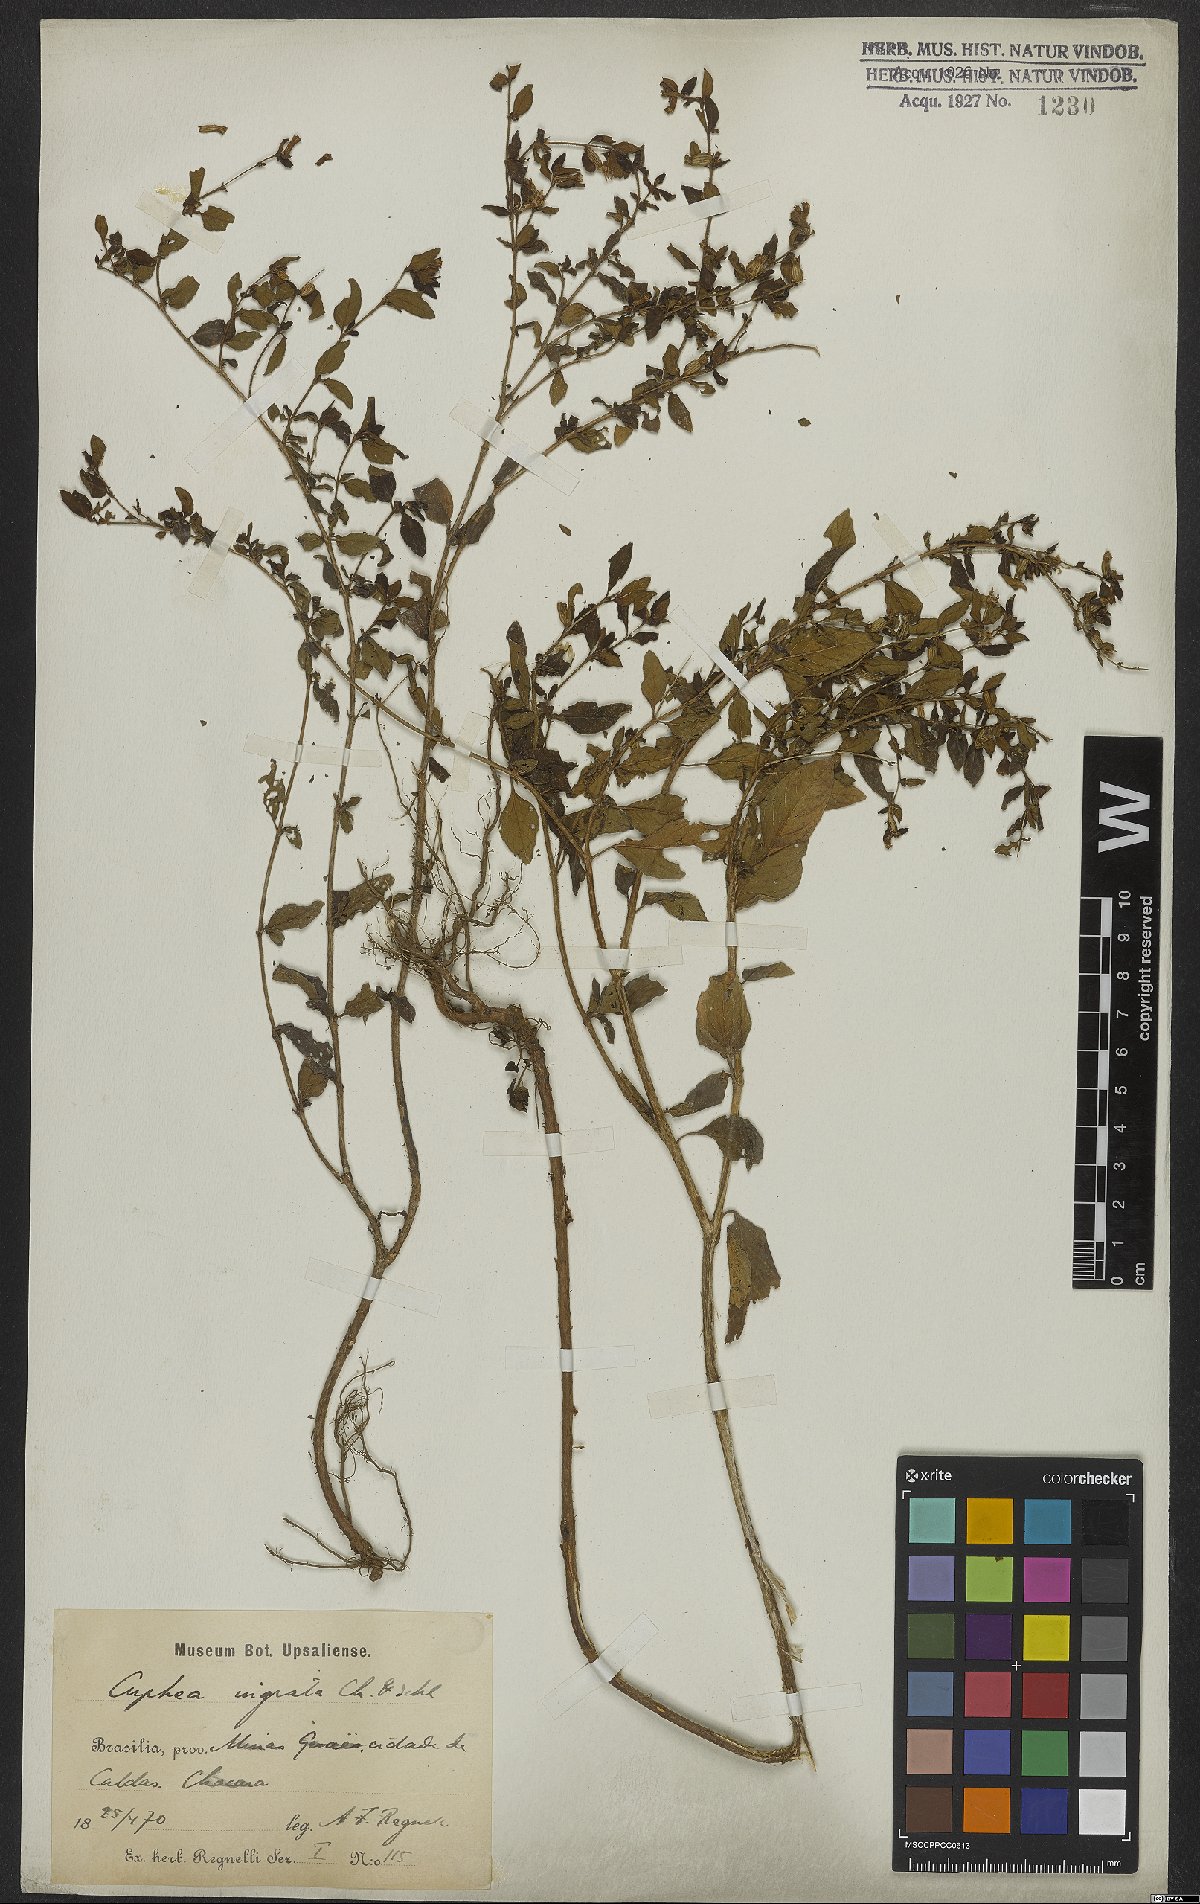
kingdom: Plantae
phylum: Tracheophyta
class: Magnoliopsida
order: Myrtales
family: Lythraceae
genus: Cuphea
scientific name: Cuphea fruticosa
